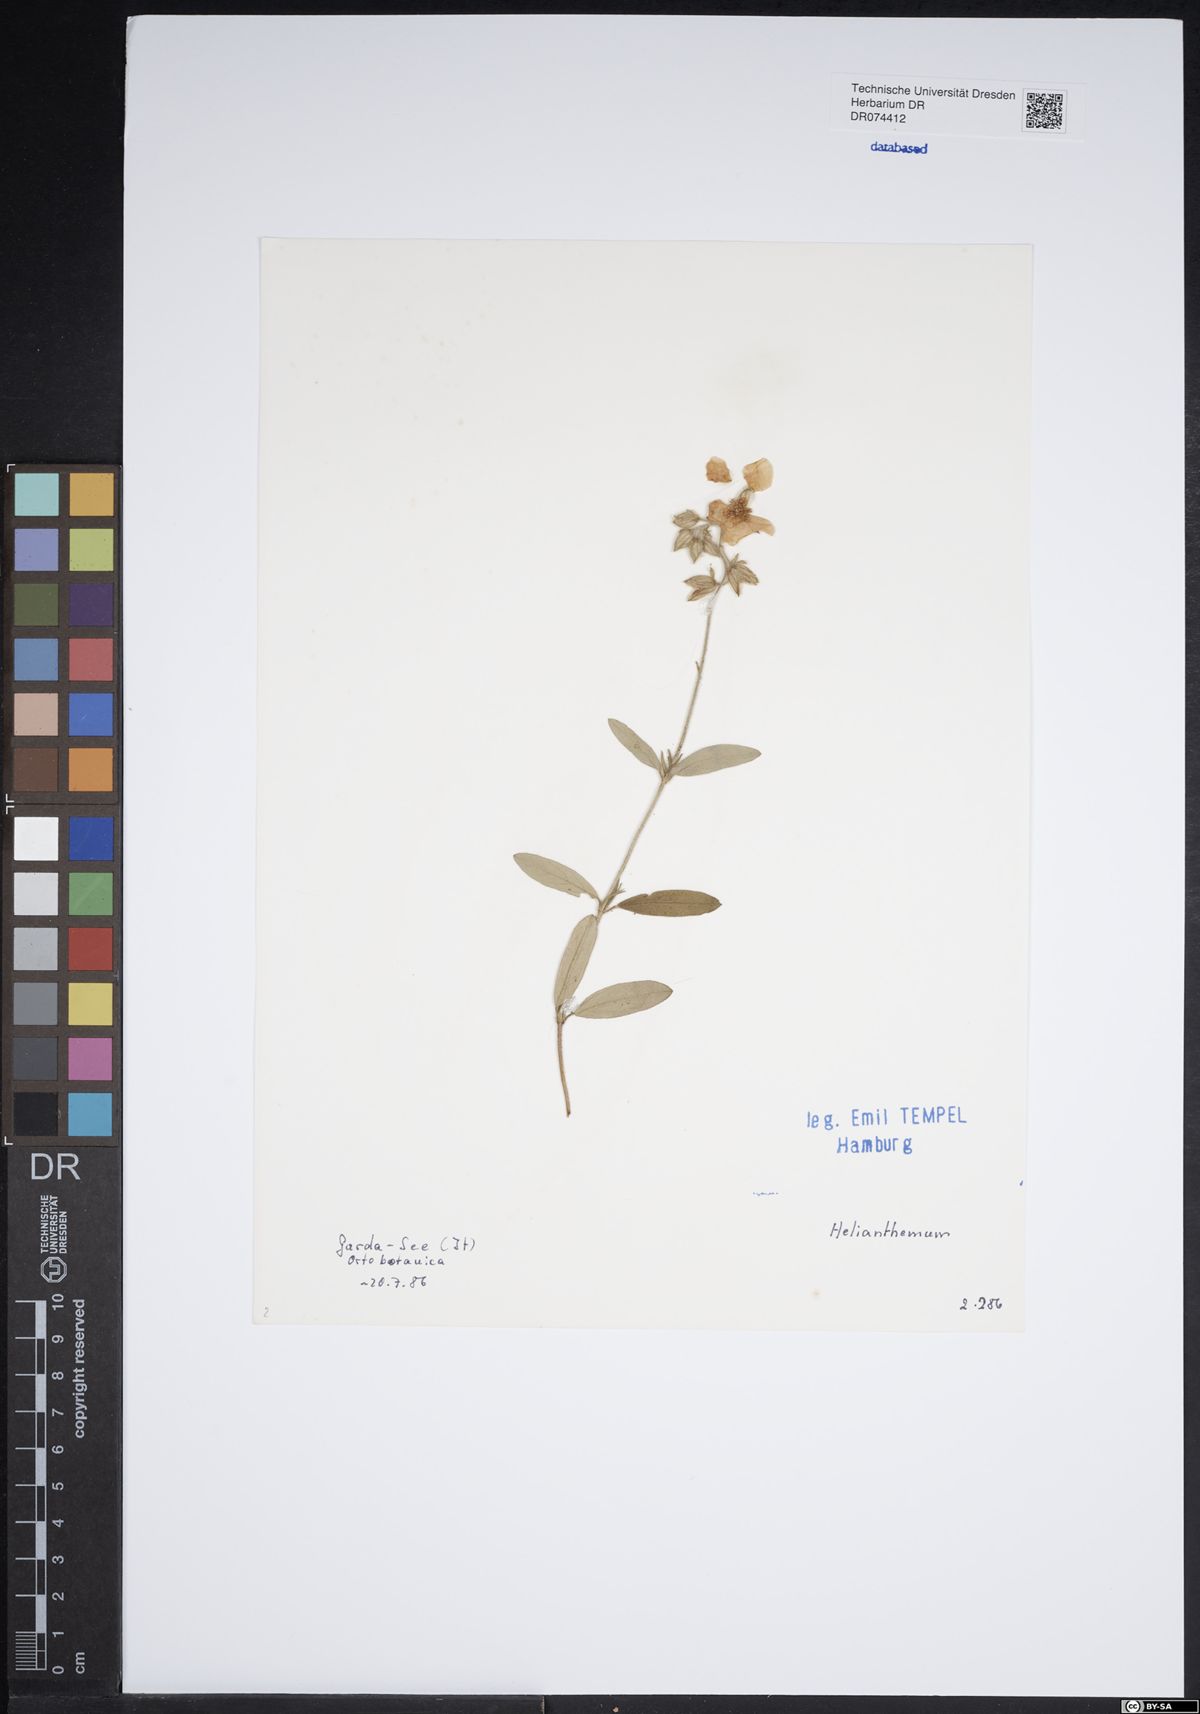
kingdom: Plantae
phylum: Tracheophyta
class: Magnoliopsida
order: Malvales
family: Cistaceae
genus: Helianthemum
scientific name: Helianthemum
